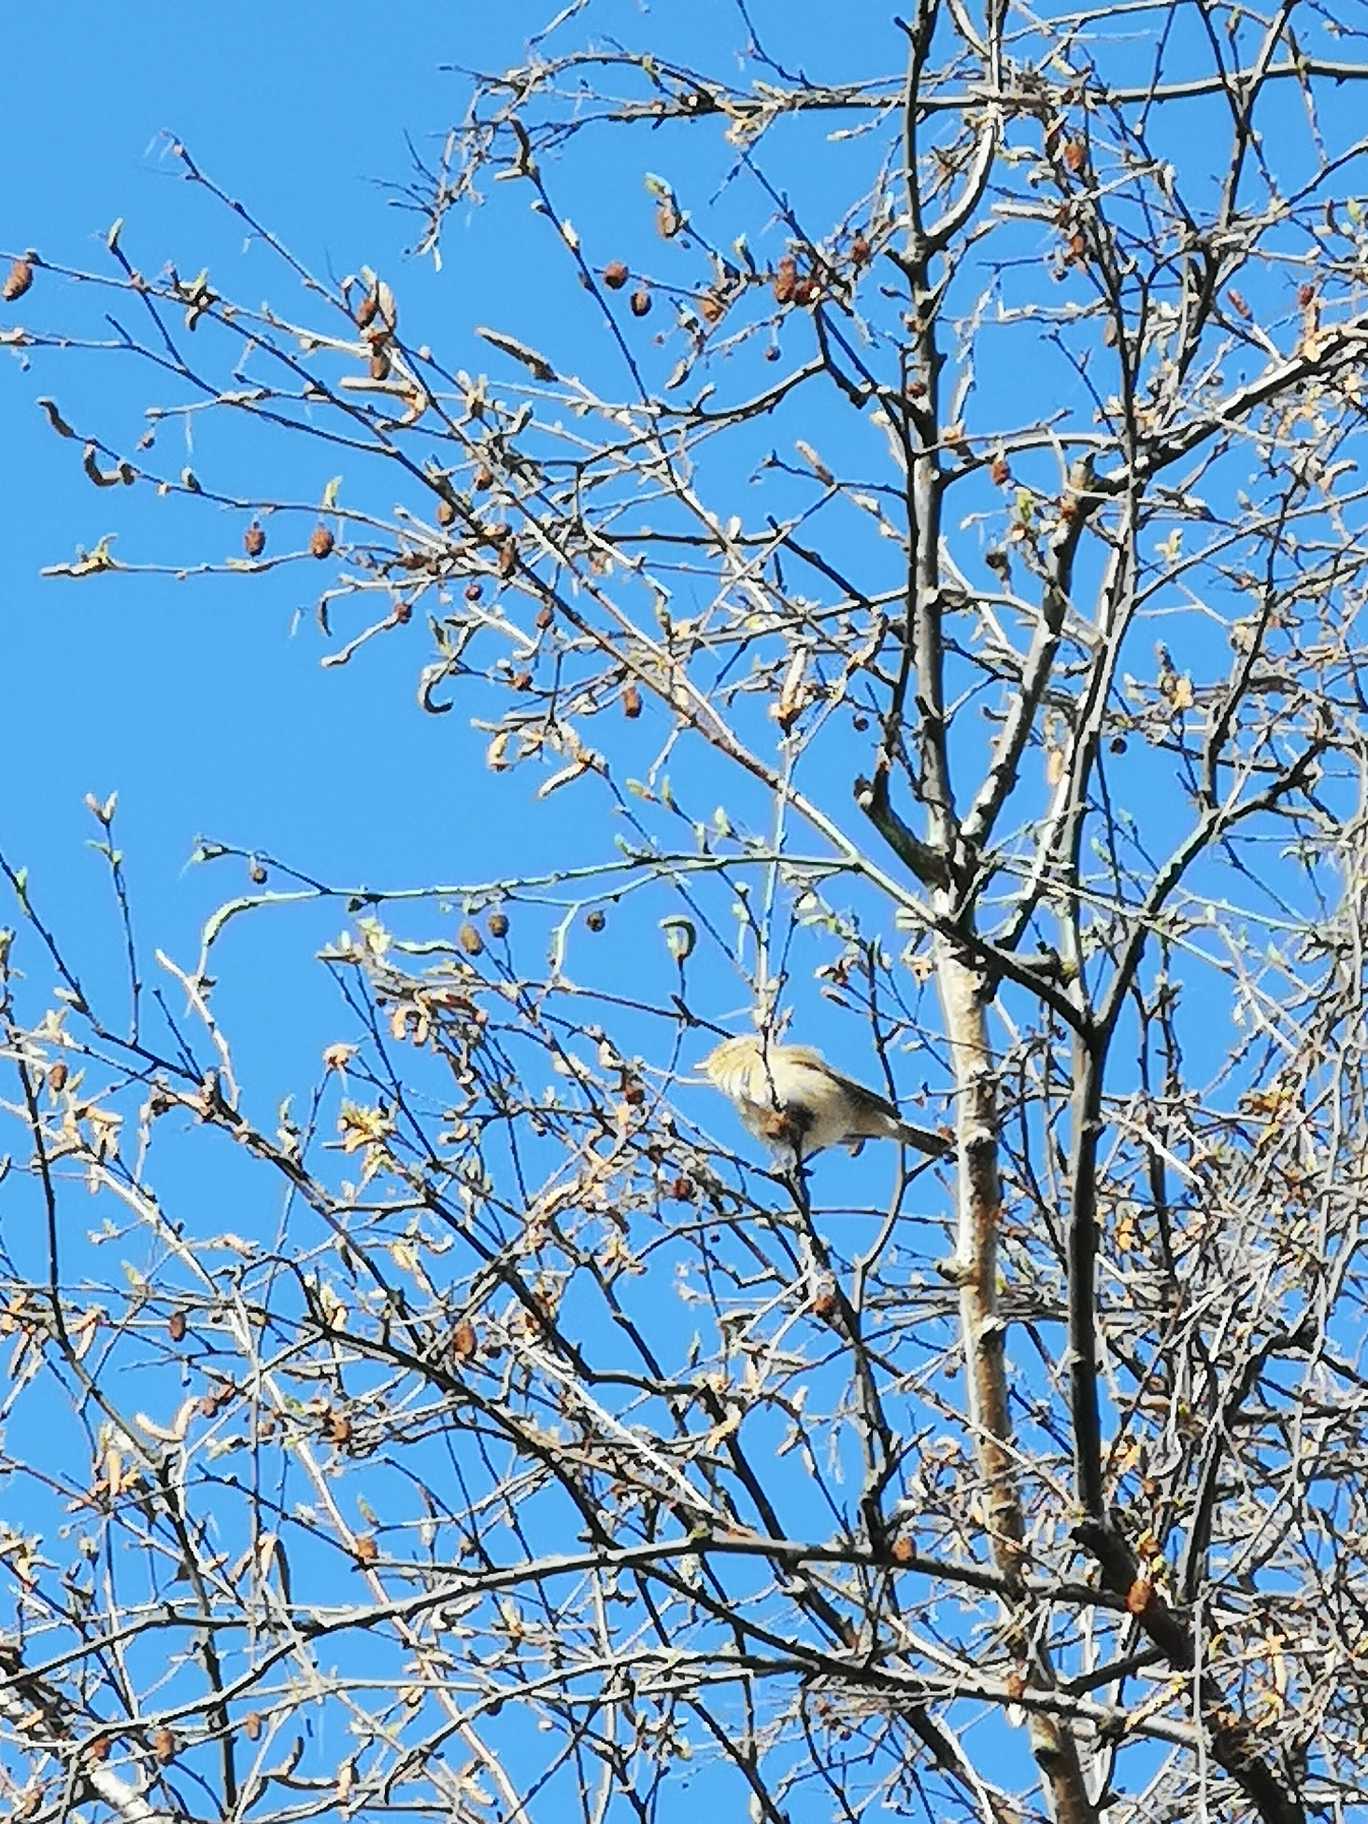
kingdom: Animalia
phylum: Chordata
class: Aves
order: Passeriformes
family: Phylloscopidae
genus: Phylloscopus
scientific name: Phylloscopus collybita
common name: Gransanger
